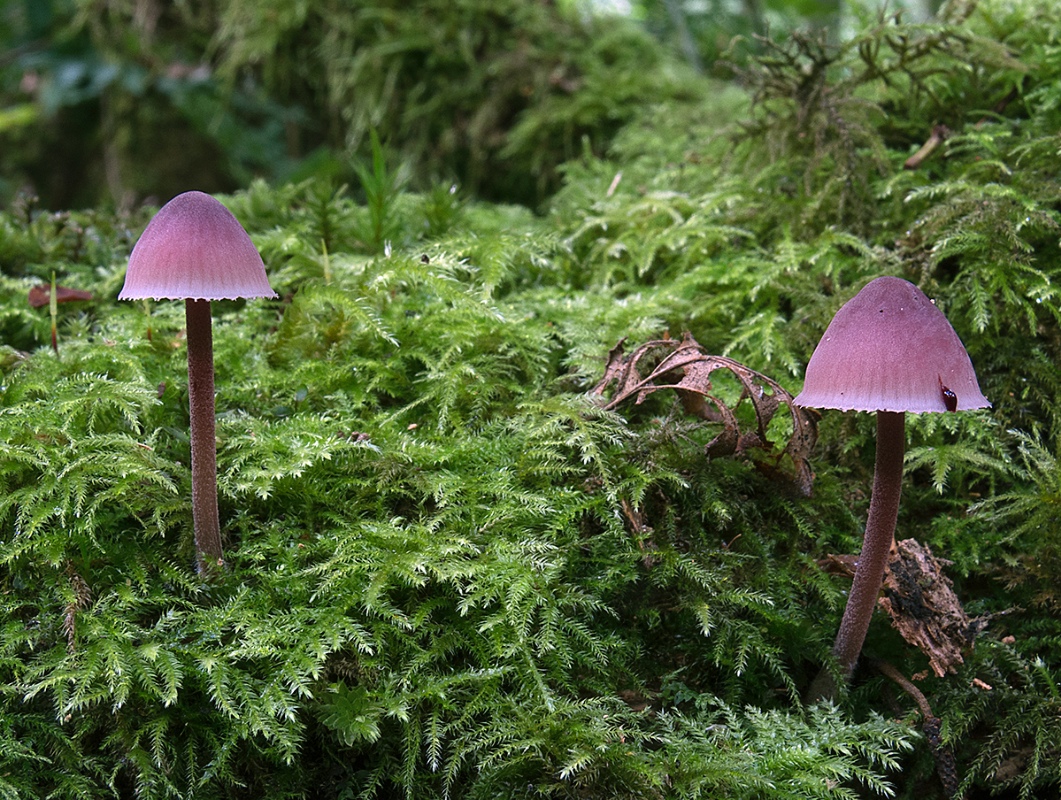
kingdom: Fungi
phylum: Basidiomycota
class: Agaricomycetes
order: Agaricales
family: Mycenaceae
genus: Mycena
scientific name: Mycena haematopus
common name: blødende huesvamp
